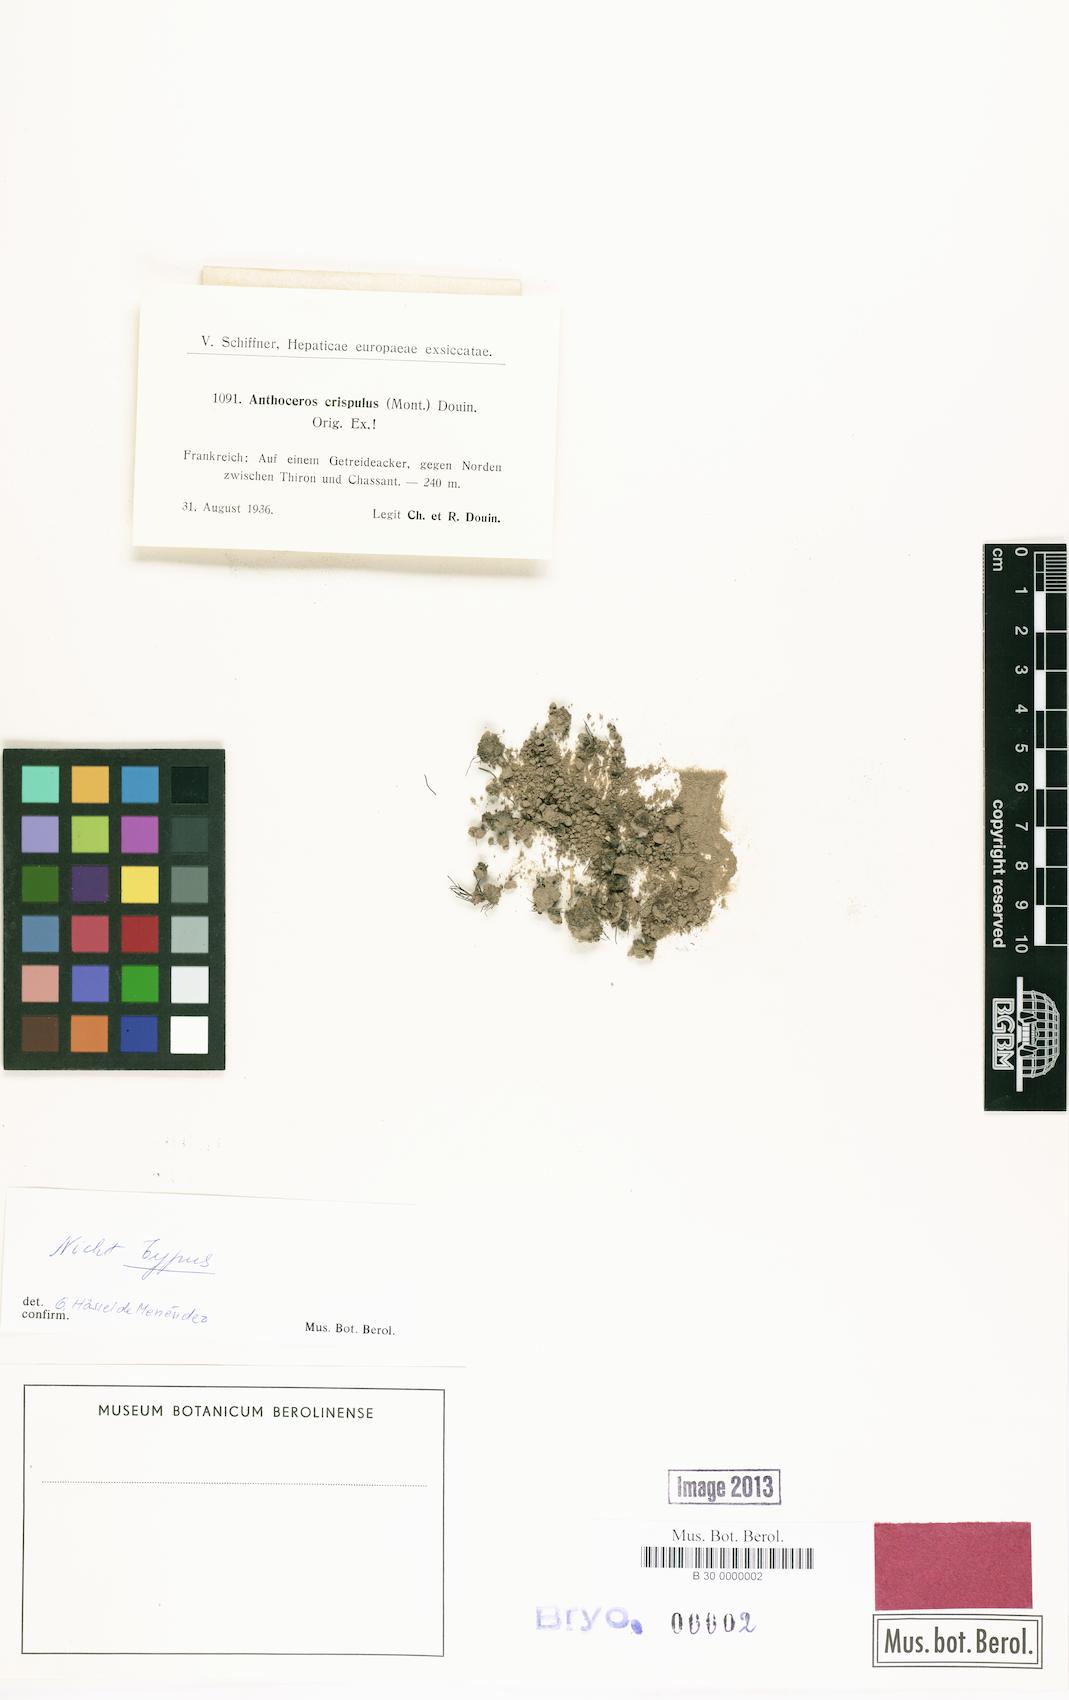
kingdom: Plantae
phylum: Anthocerotophyta
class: Anthocerotopsida
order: Anthocerotales
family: Anthocerotaceae
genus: Anthoceros
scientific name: Anthoceros punctatus
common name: Dotted hornwort
